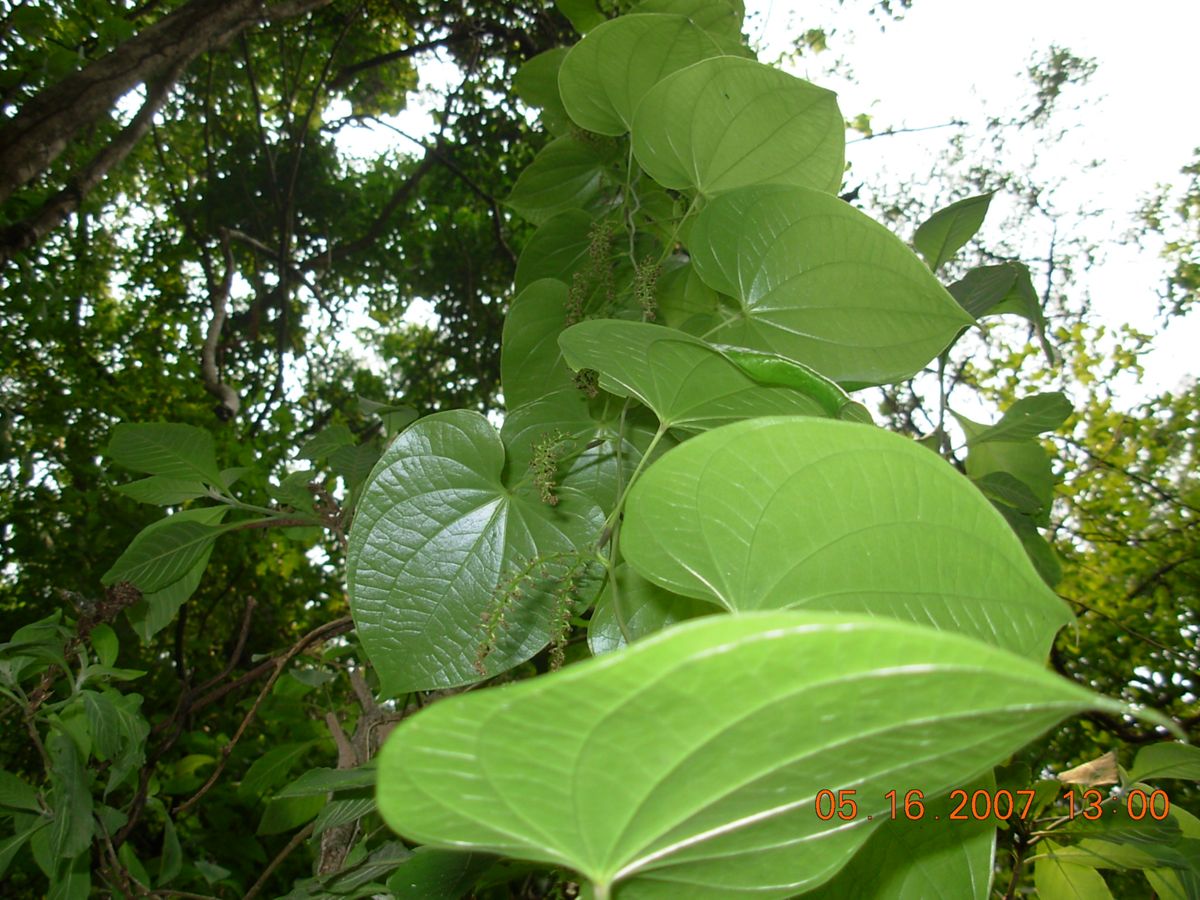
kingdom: Plantae
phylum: Tracheophyta
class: Liliopsida
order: Dioscoreales
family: Dioscoreaceae
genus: Dioscorea
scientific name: Dioscorea mexicana
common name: Mexican yam
